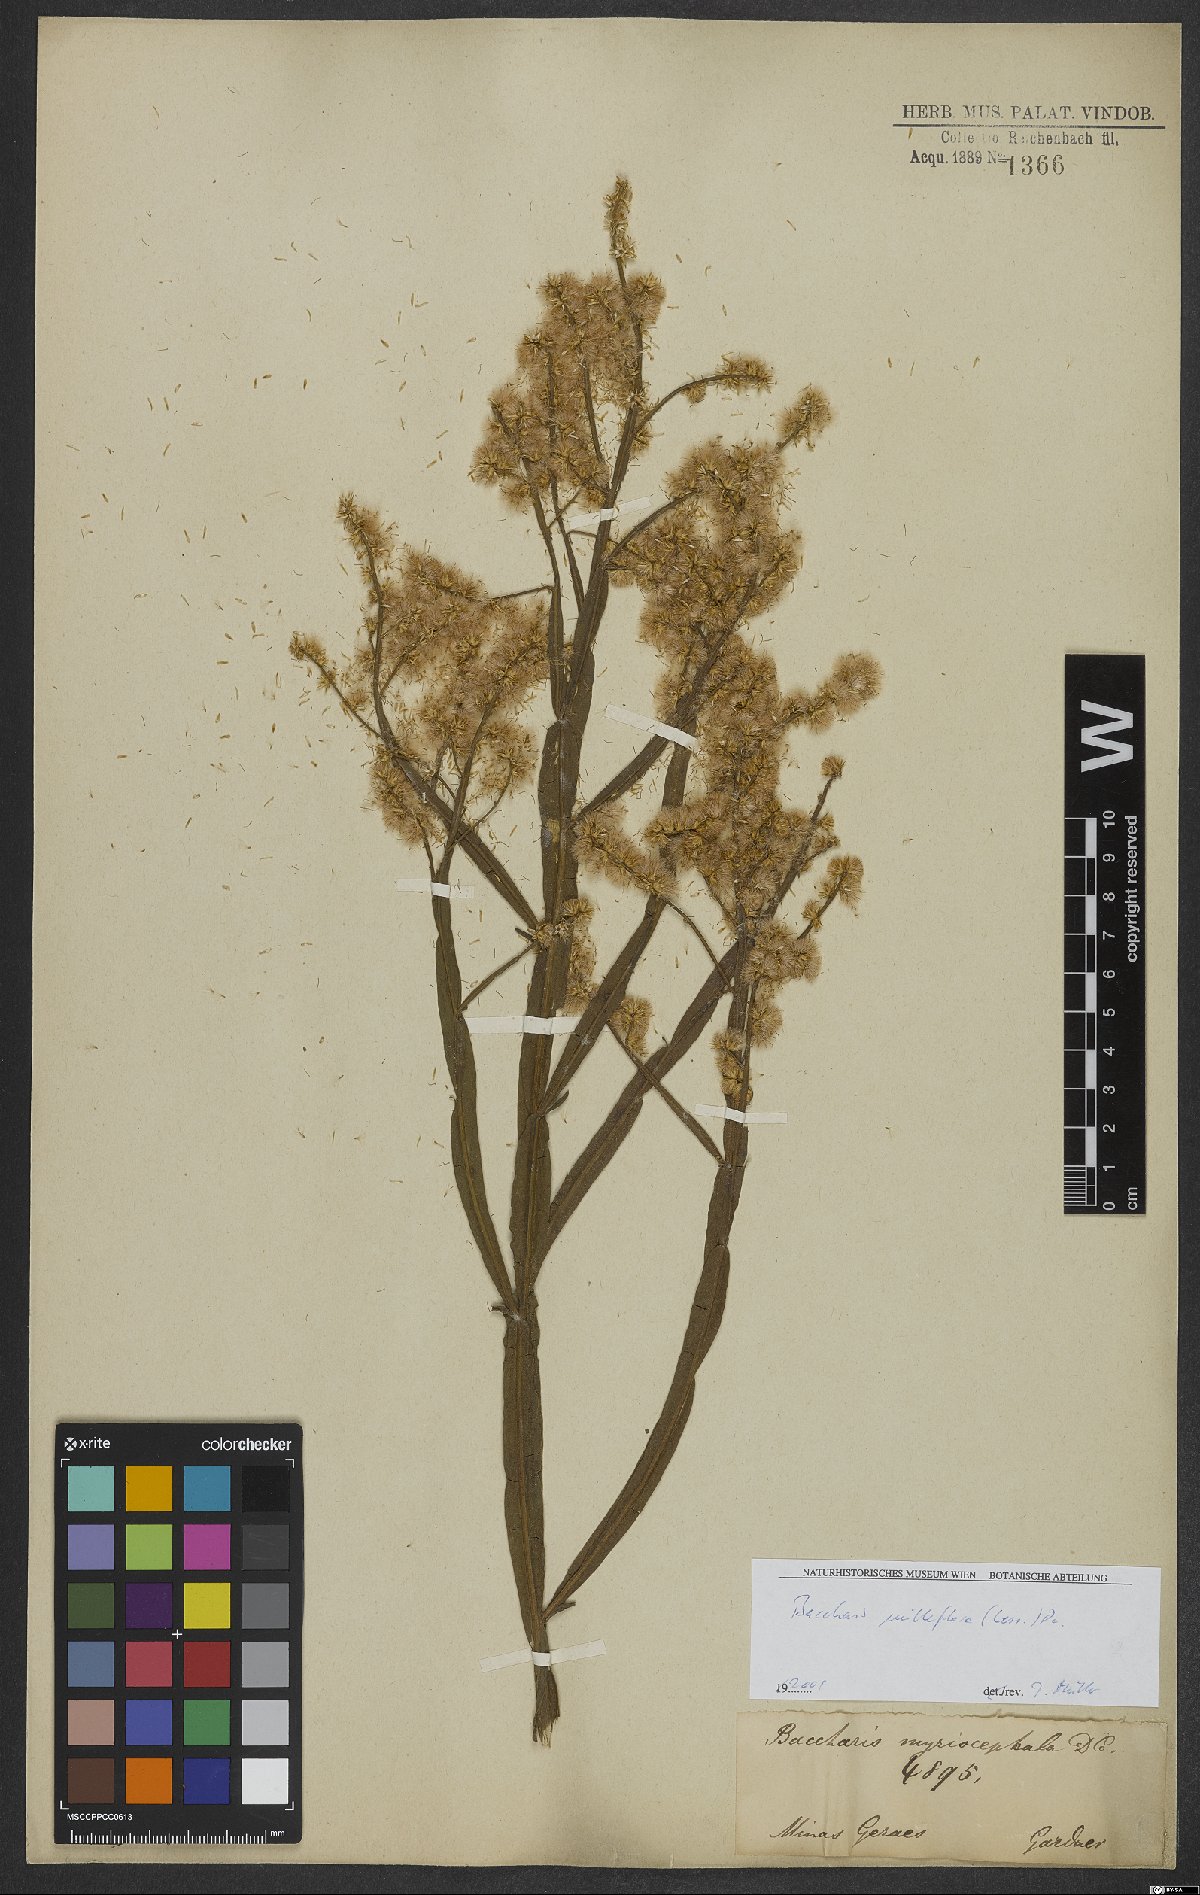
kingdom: Plantae
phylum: Tracheophyta
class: Magnoliopsida
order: Asterales
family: Asteraceae
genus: Baccharis
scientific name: Baccharis milleflora
